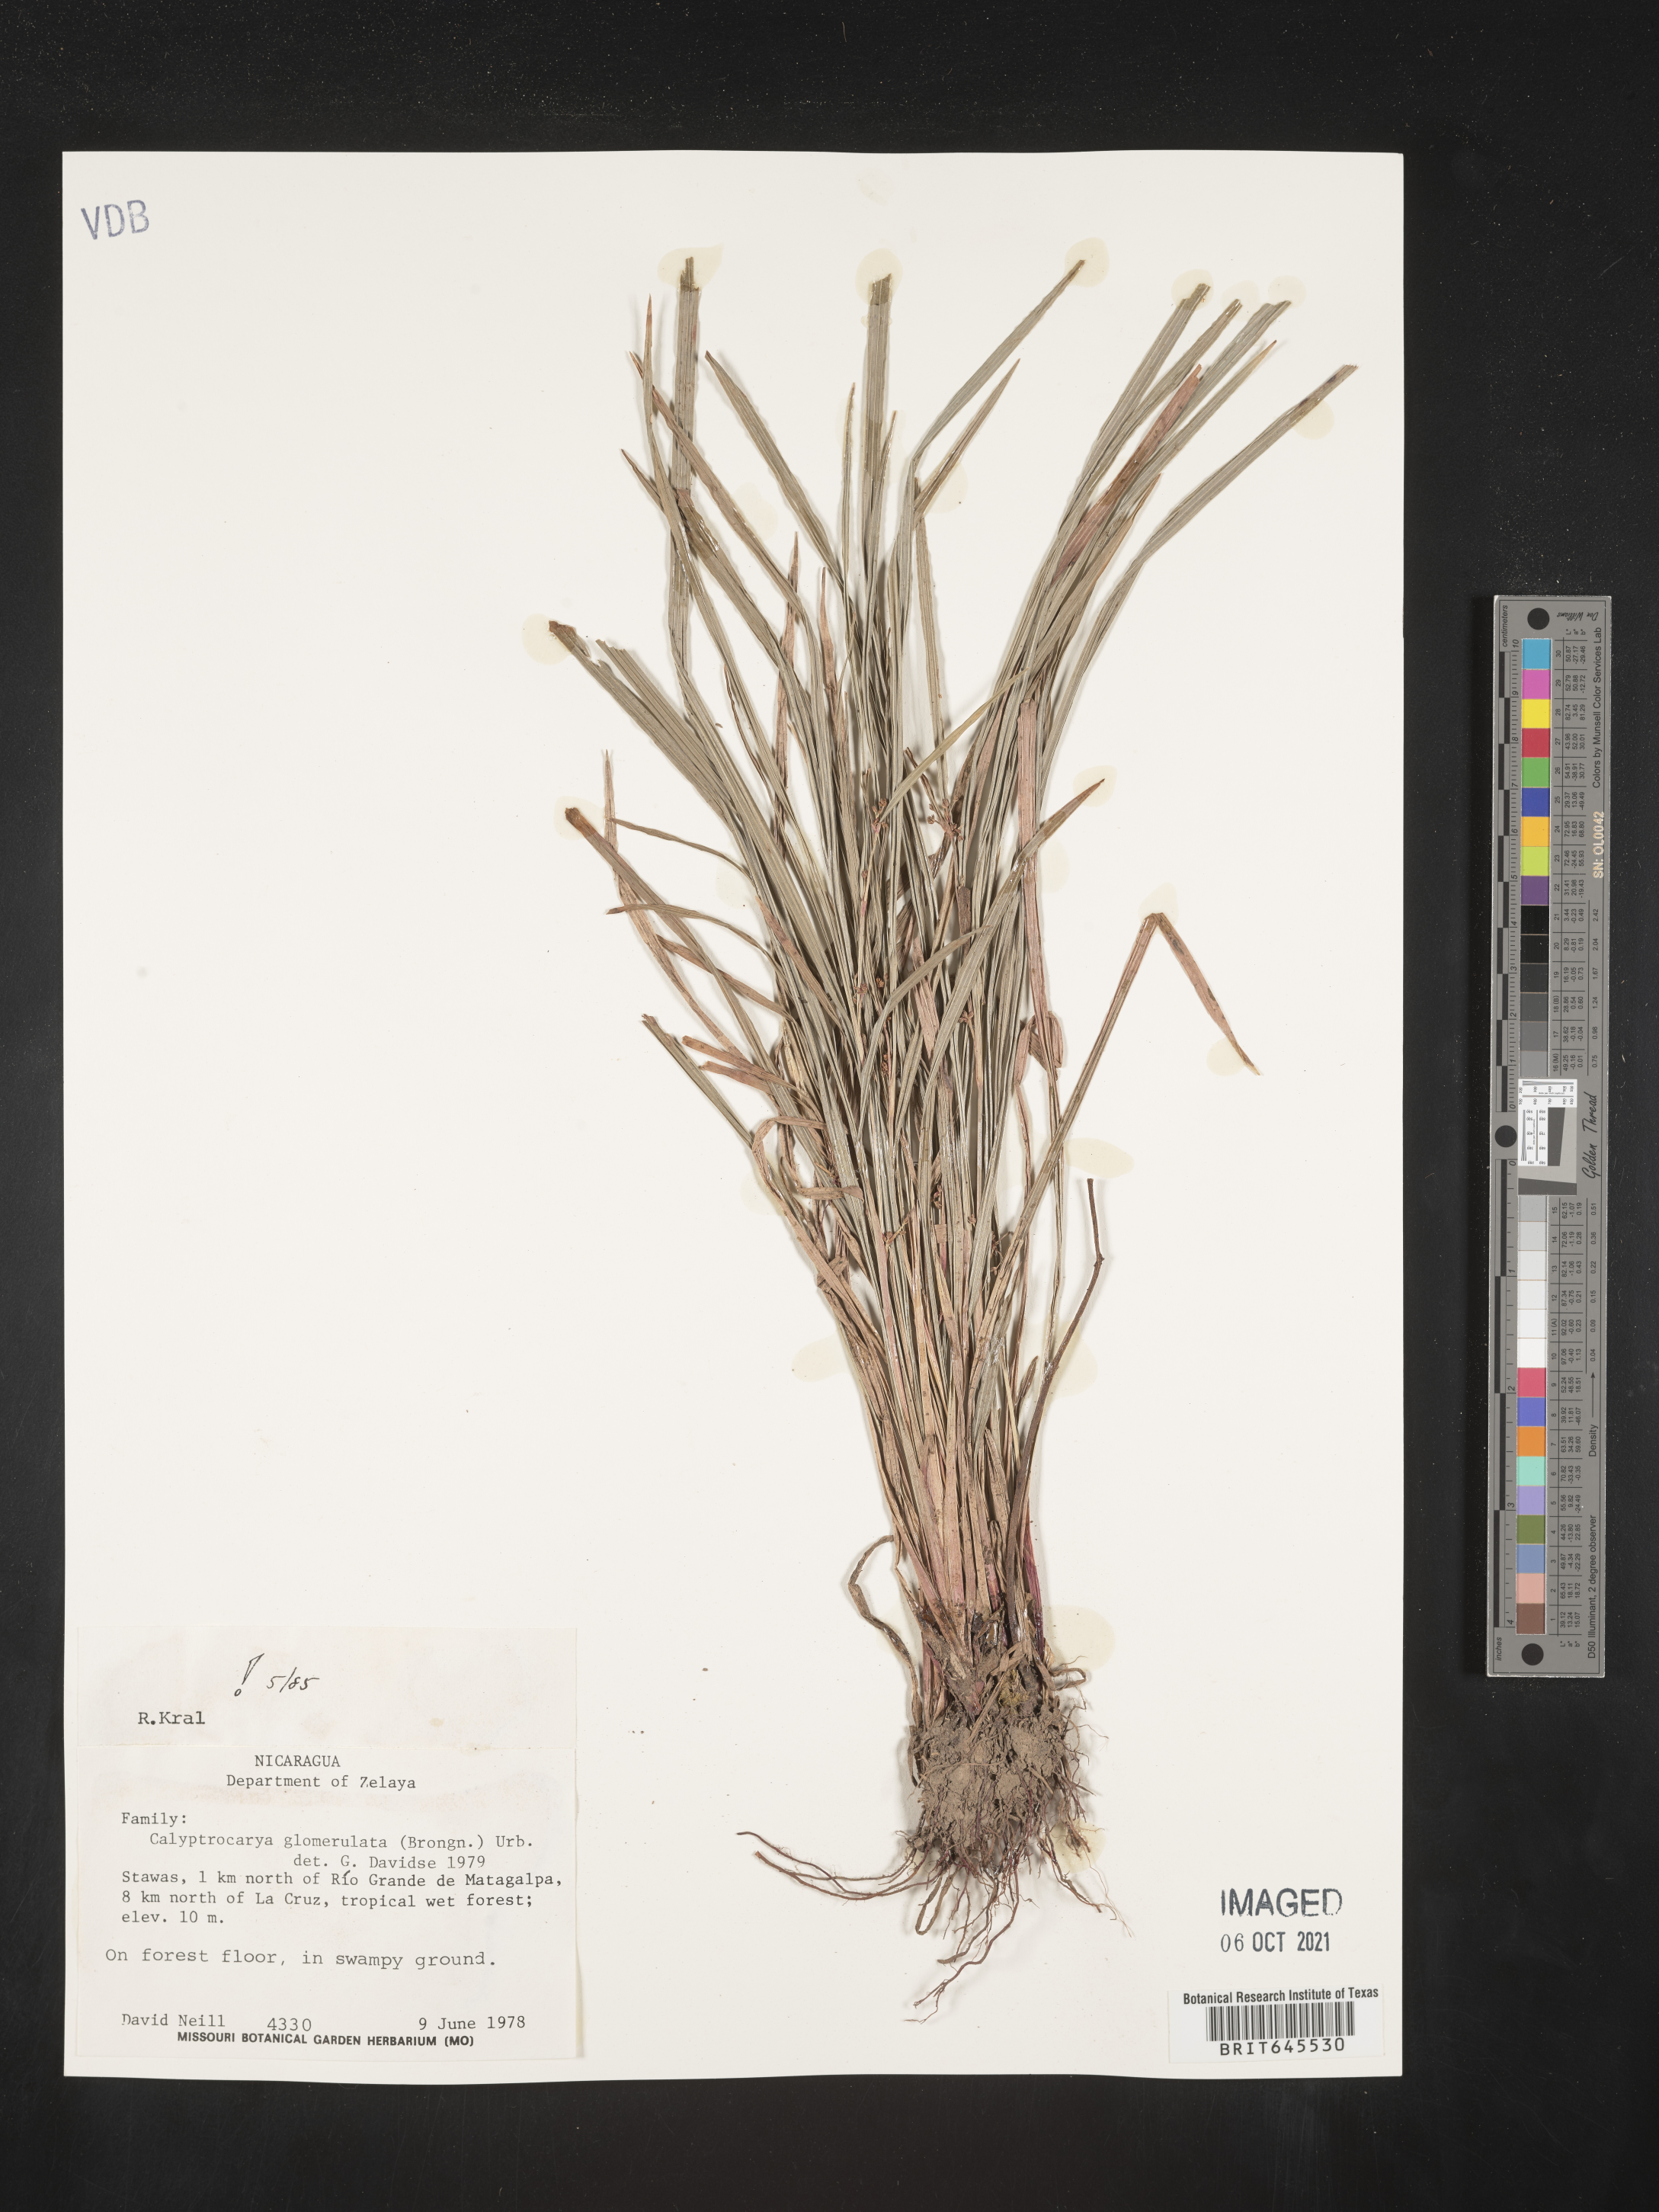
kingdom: Plantae
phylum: Tracheophyta
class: Liliopsida
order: Poales
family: Cyperaceae
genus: Calyptrocarya
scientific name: Calyptrocarya glomerulata
